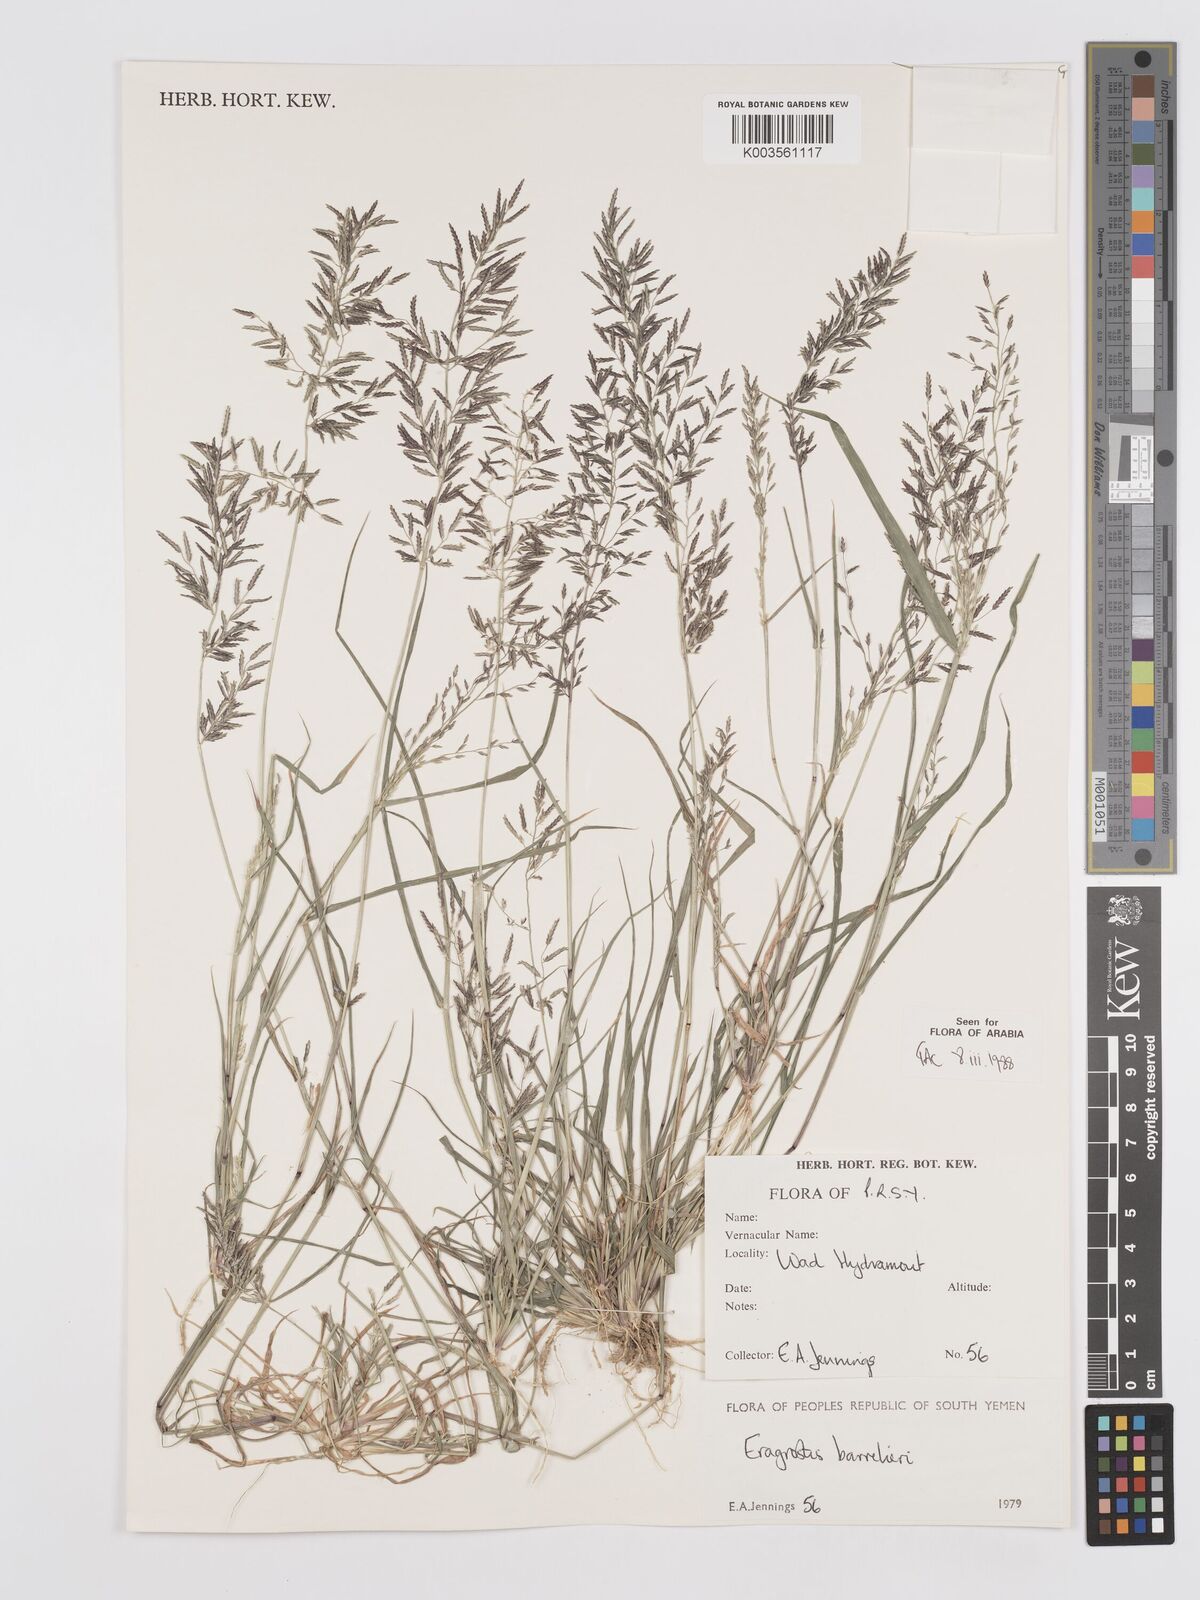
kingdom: Plantae
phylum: Tracheophyta
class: Liliopsida
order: Poales
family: Poaceae
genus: Eragrostis
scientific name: Eragrostis barrelieri
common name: Mediterranean lovegrass
